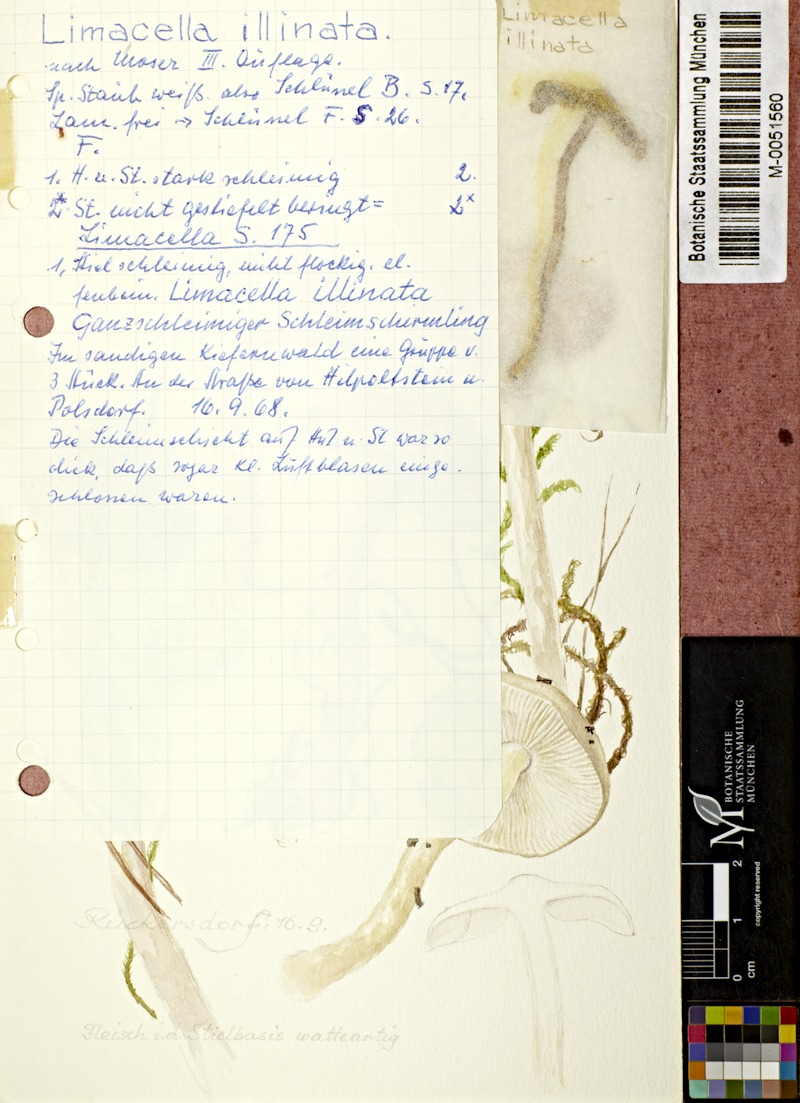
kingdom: Fungi
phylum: Basidiomycota
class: Agaricomycetes
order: Agaricales
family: Amanitaceae
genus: Zhuliangomyces
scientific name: Zhuliangomyces illinitus
